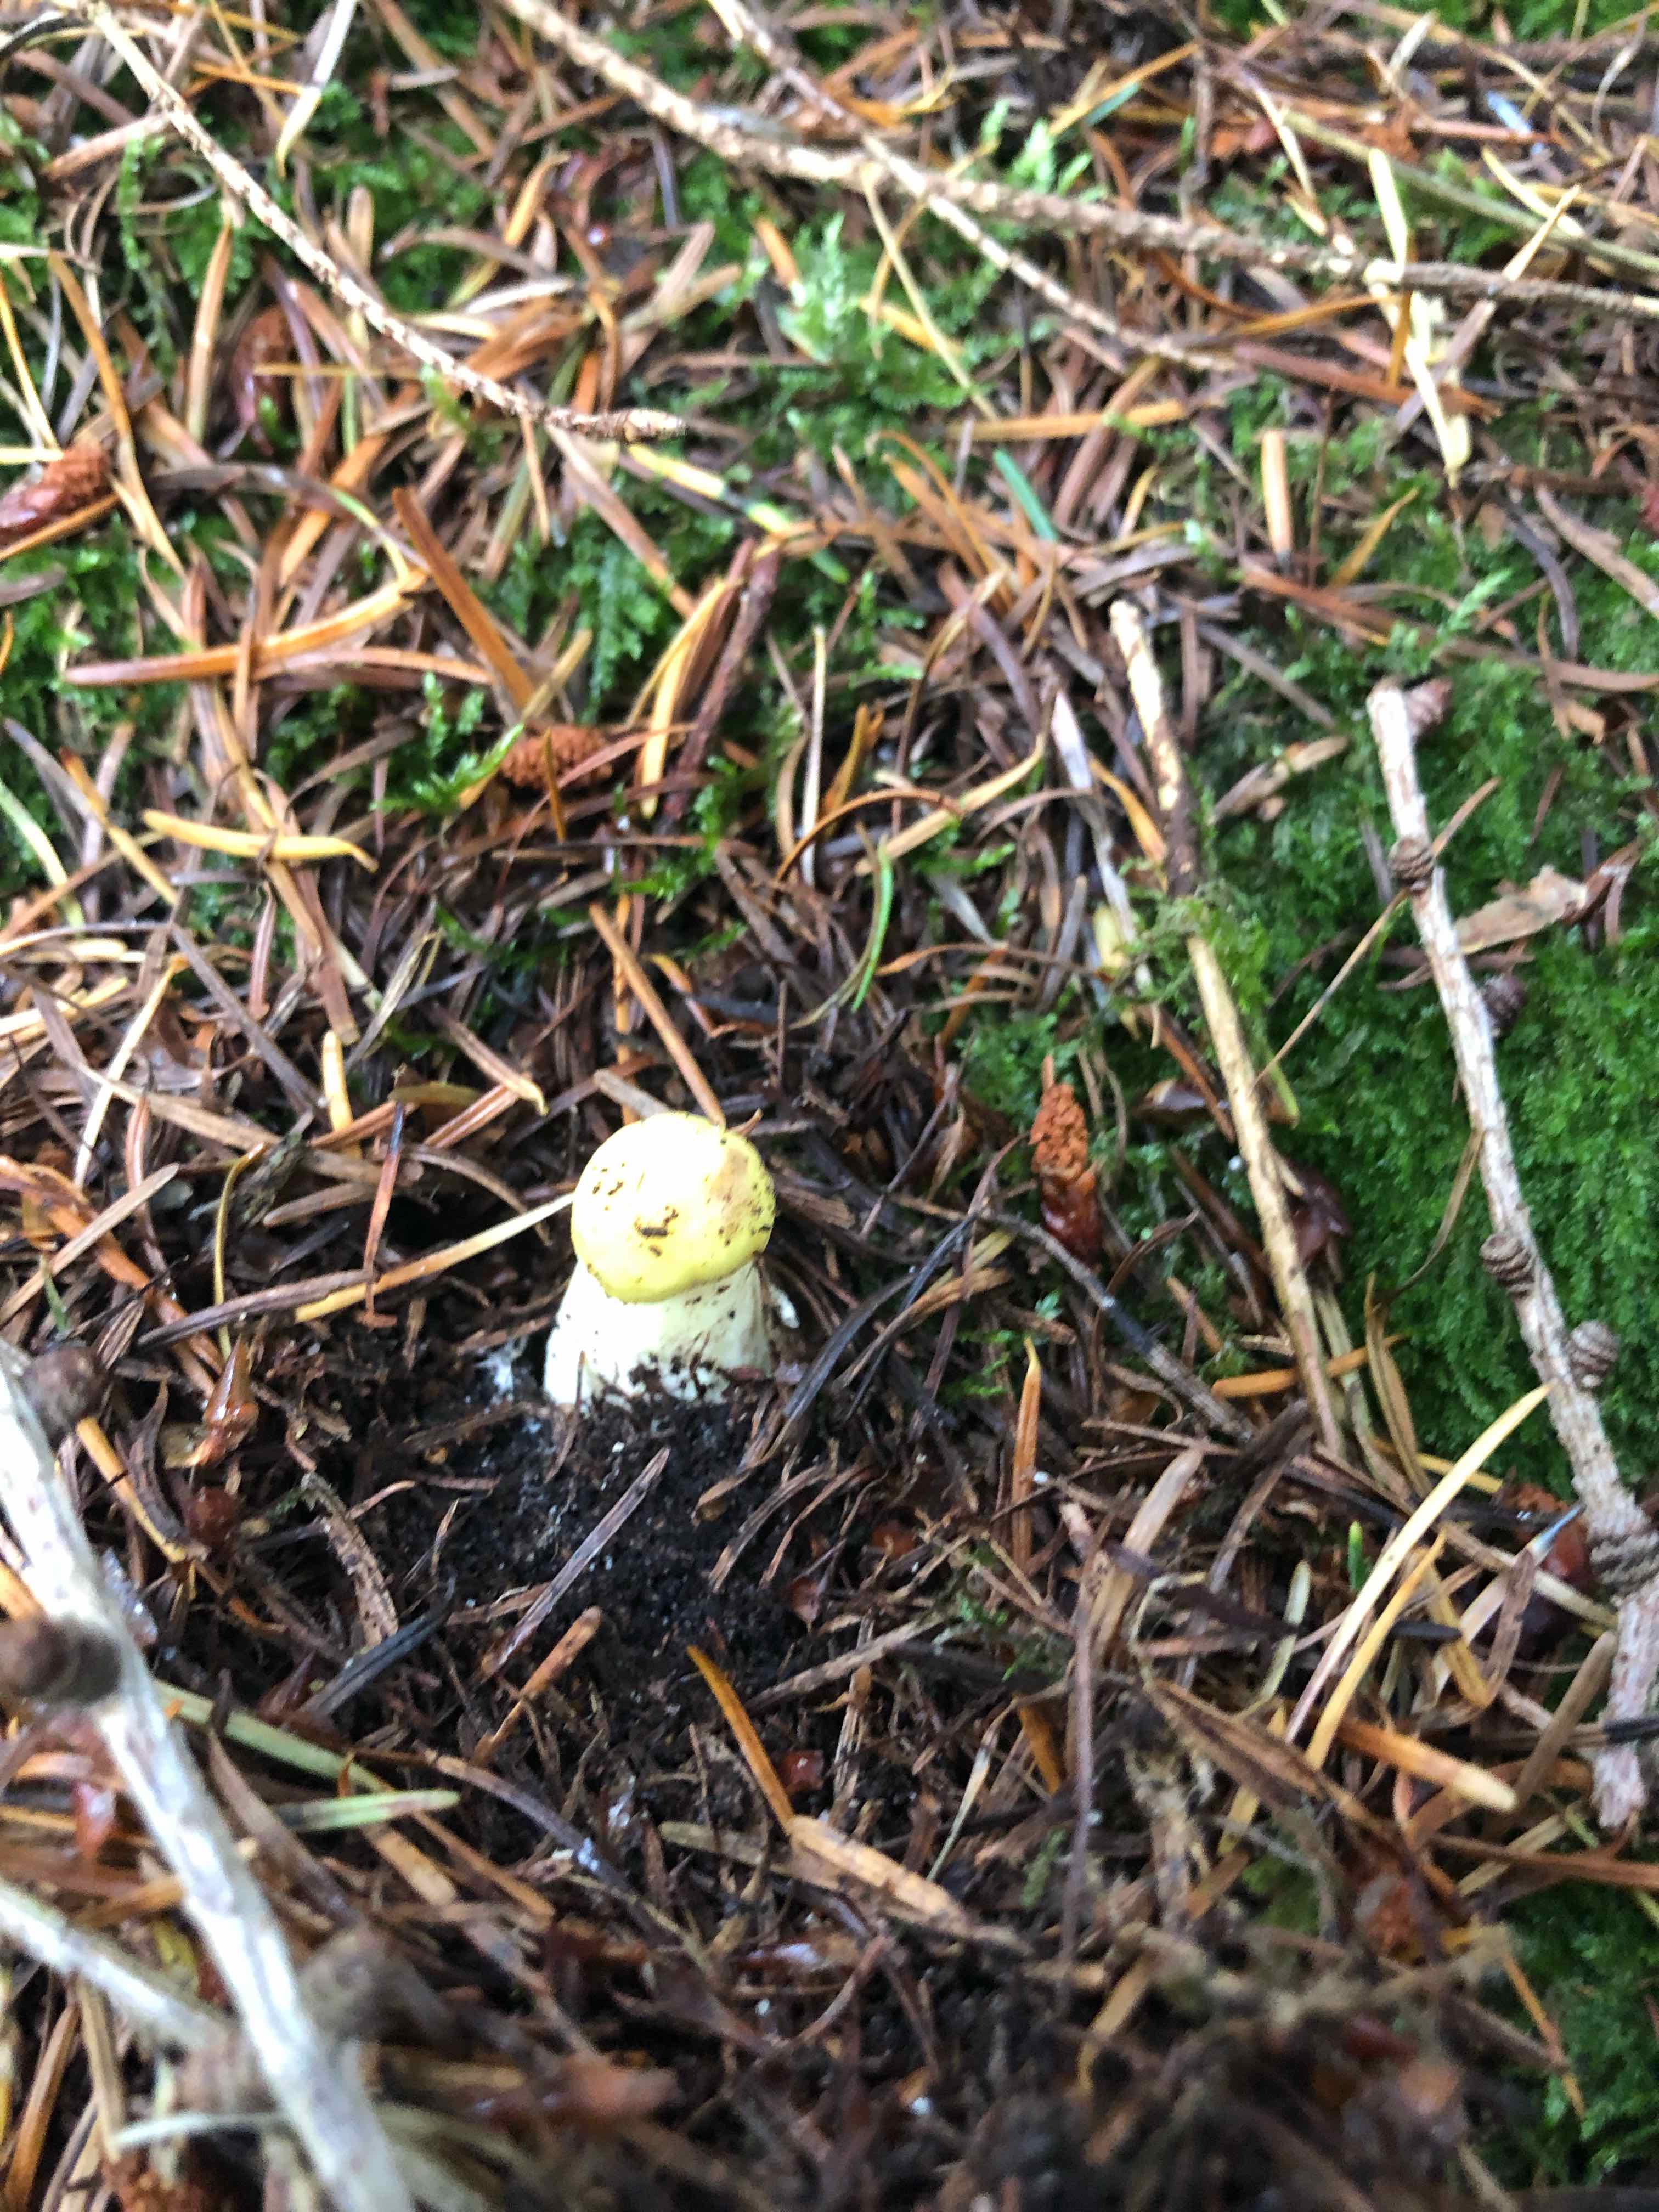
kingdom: Fungi
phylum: Basidiomycota
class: Agaricomycetes
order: Boletales
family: Suillaceae
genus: Suillus
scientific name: Suillus grevillei
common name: lærke-slimrørhat
